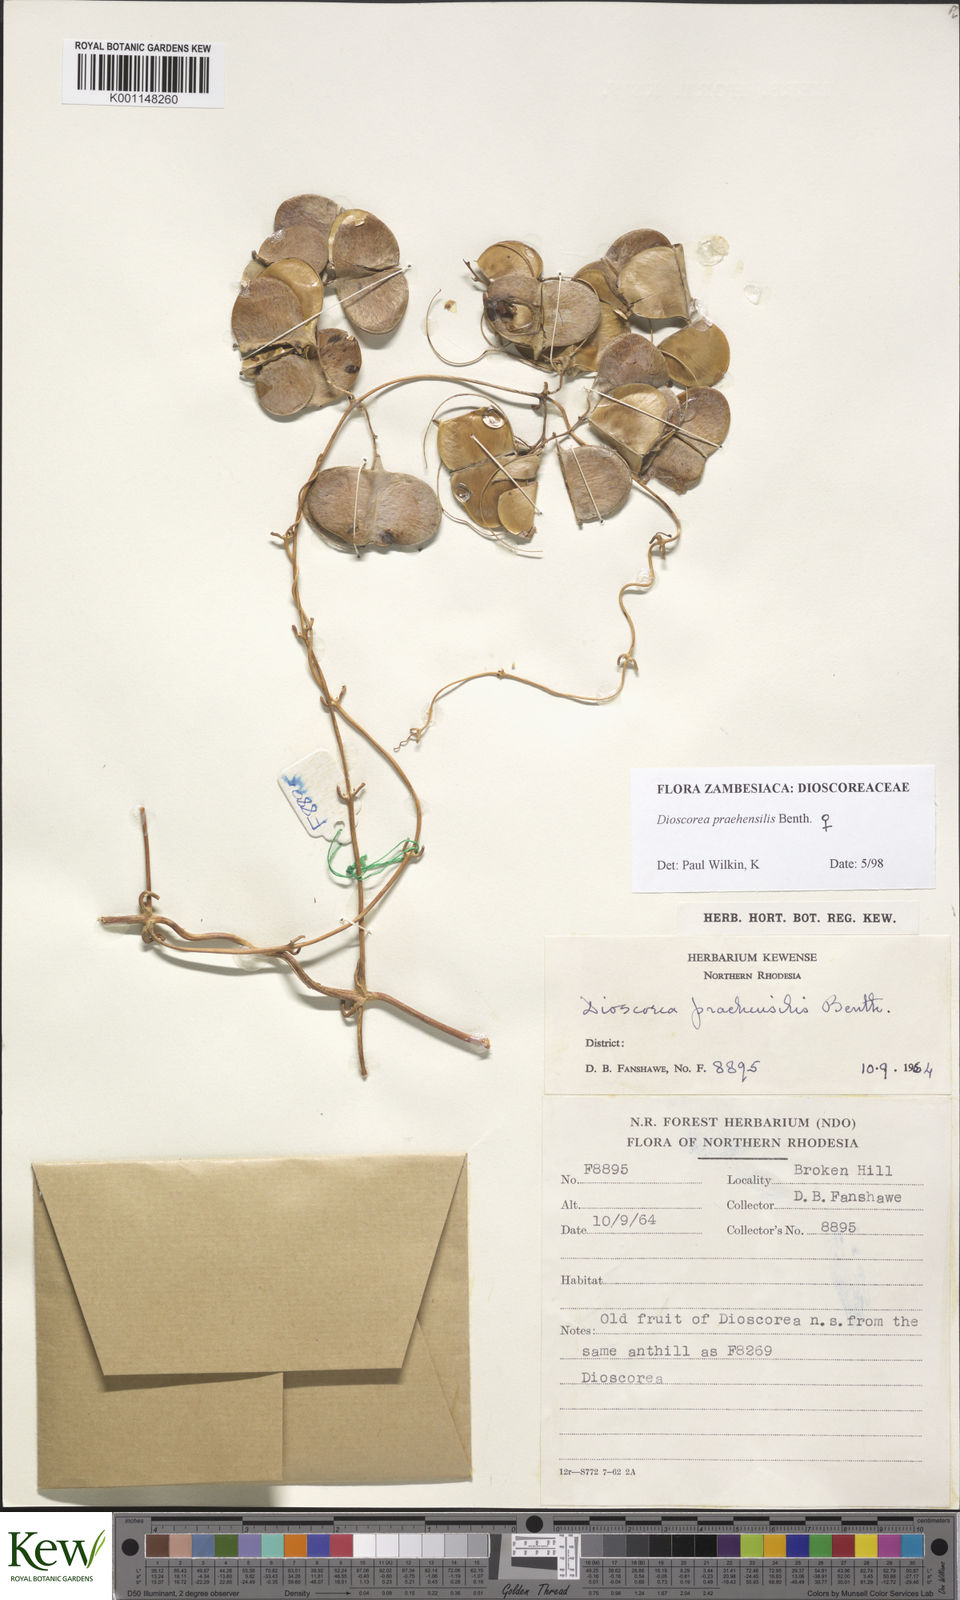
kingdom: Plantae
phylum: Tracheophyta
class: Liliopsida
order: Dioscoreales
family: Dioscoreaceae
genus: Dioscorea
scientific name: Dioscorea praehensilis
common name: Bush yam
